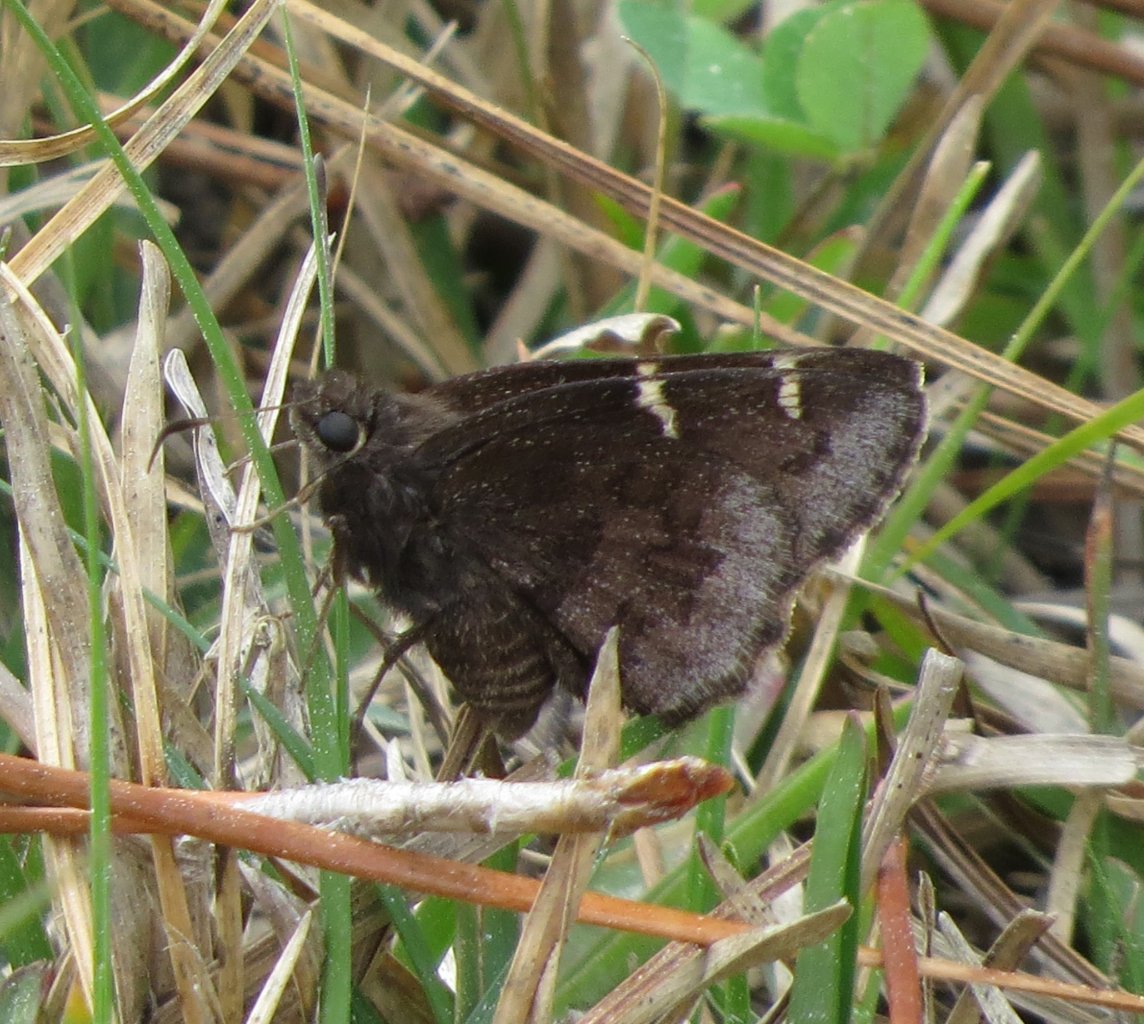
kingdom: Animalia
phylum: Arthropoda
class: Insecta
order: Lepidoptera
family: Hesperiidae
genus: Autochton
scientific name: Autochton
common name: Northern Cloudywing
